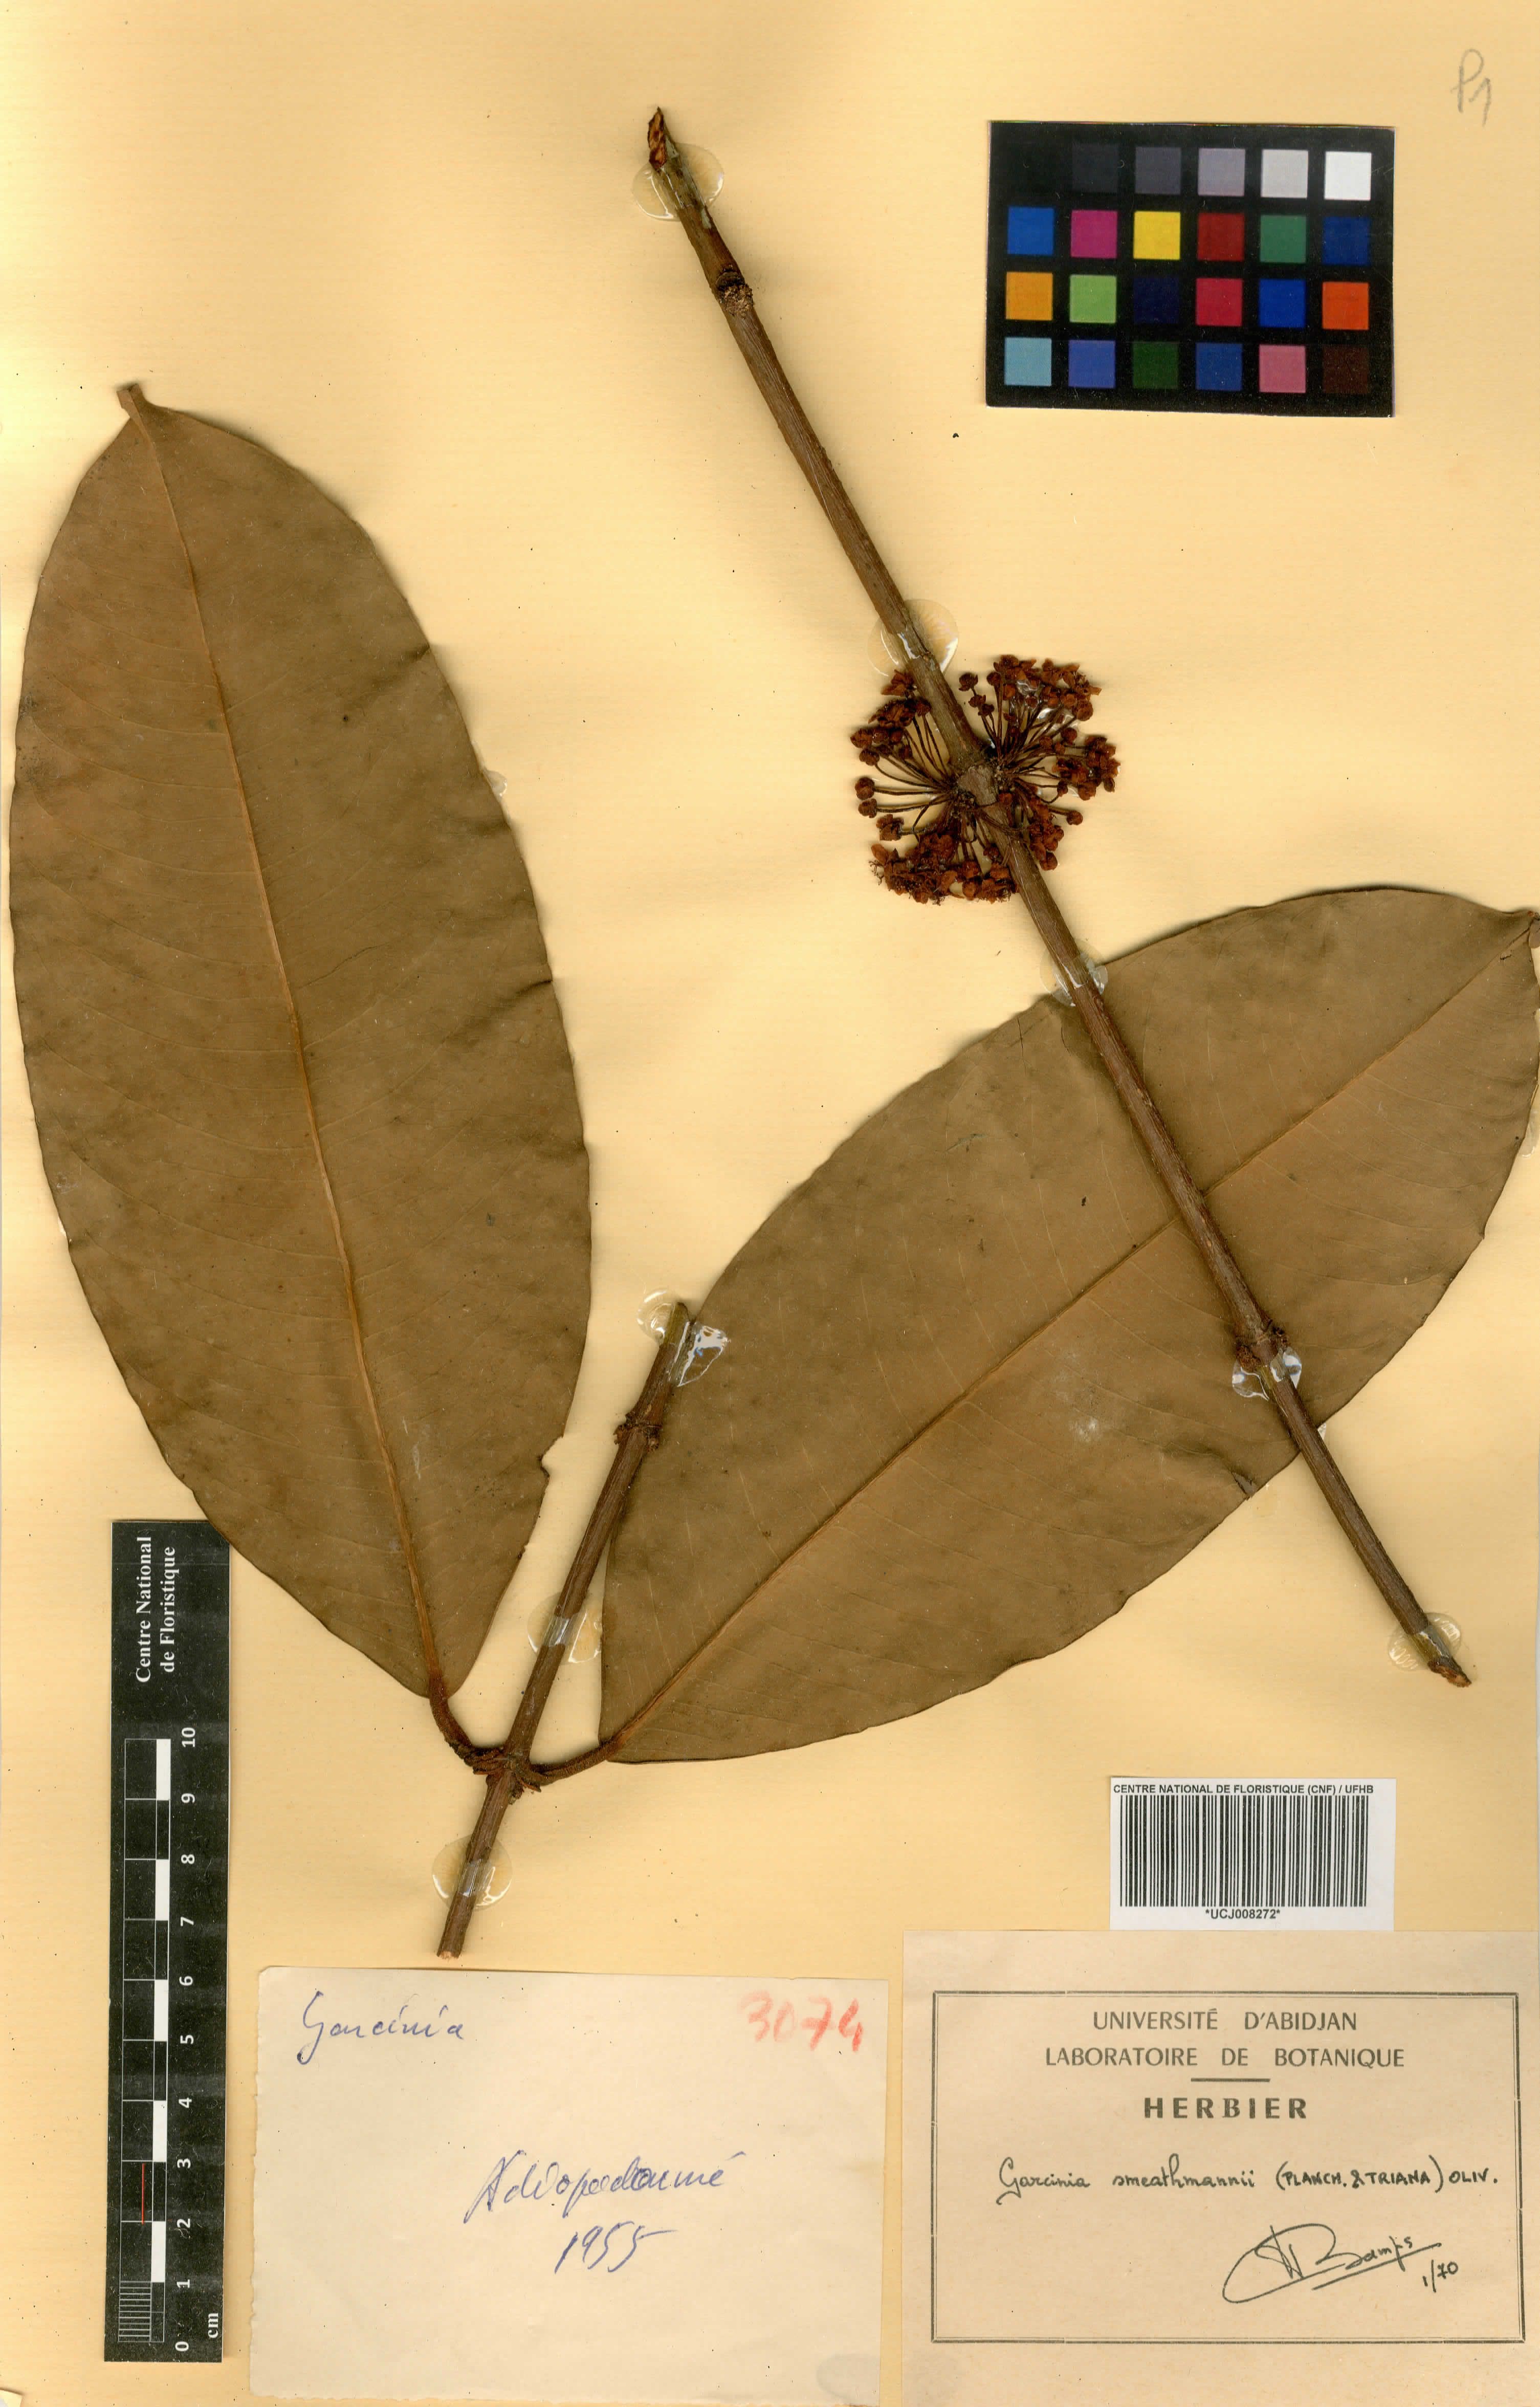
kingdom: Plantae
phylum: Tracheophyta
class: Magnoliopsida
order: Malpighiales
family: Clusiaceae
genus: Garcinia
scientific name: Garcinia smeathmannii
